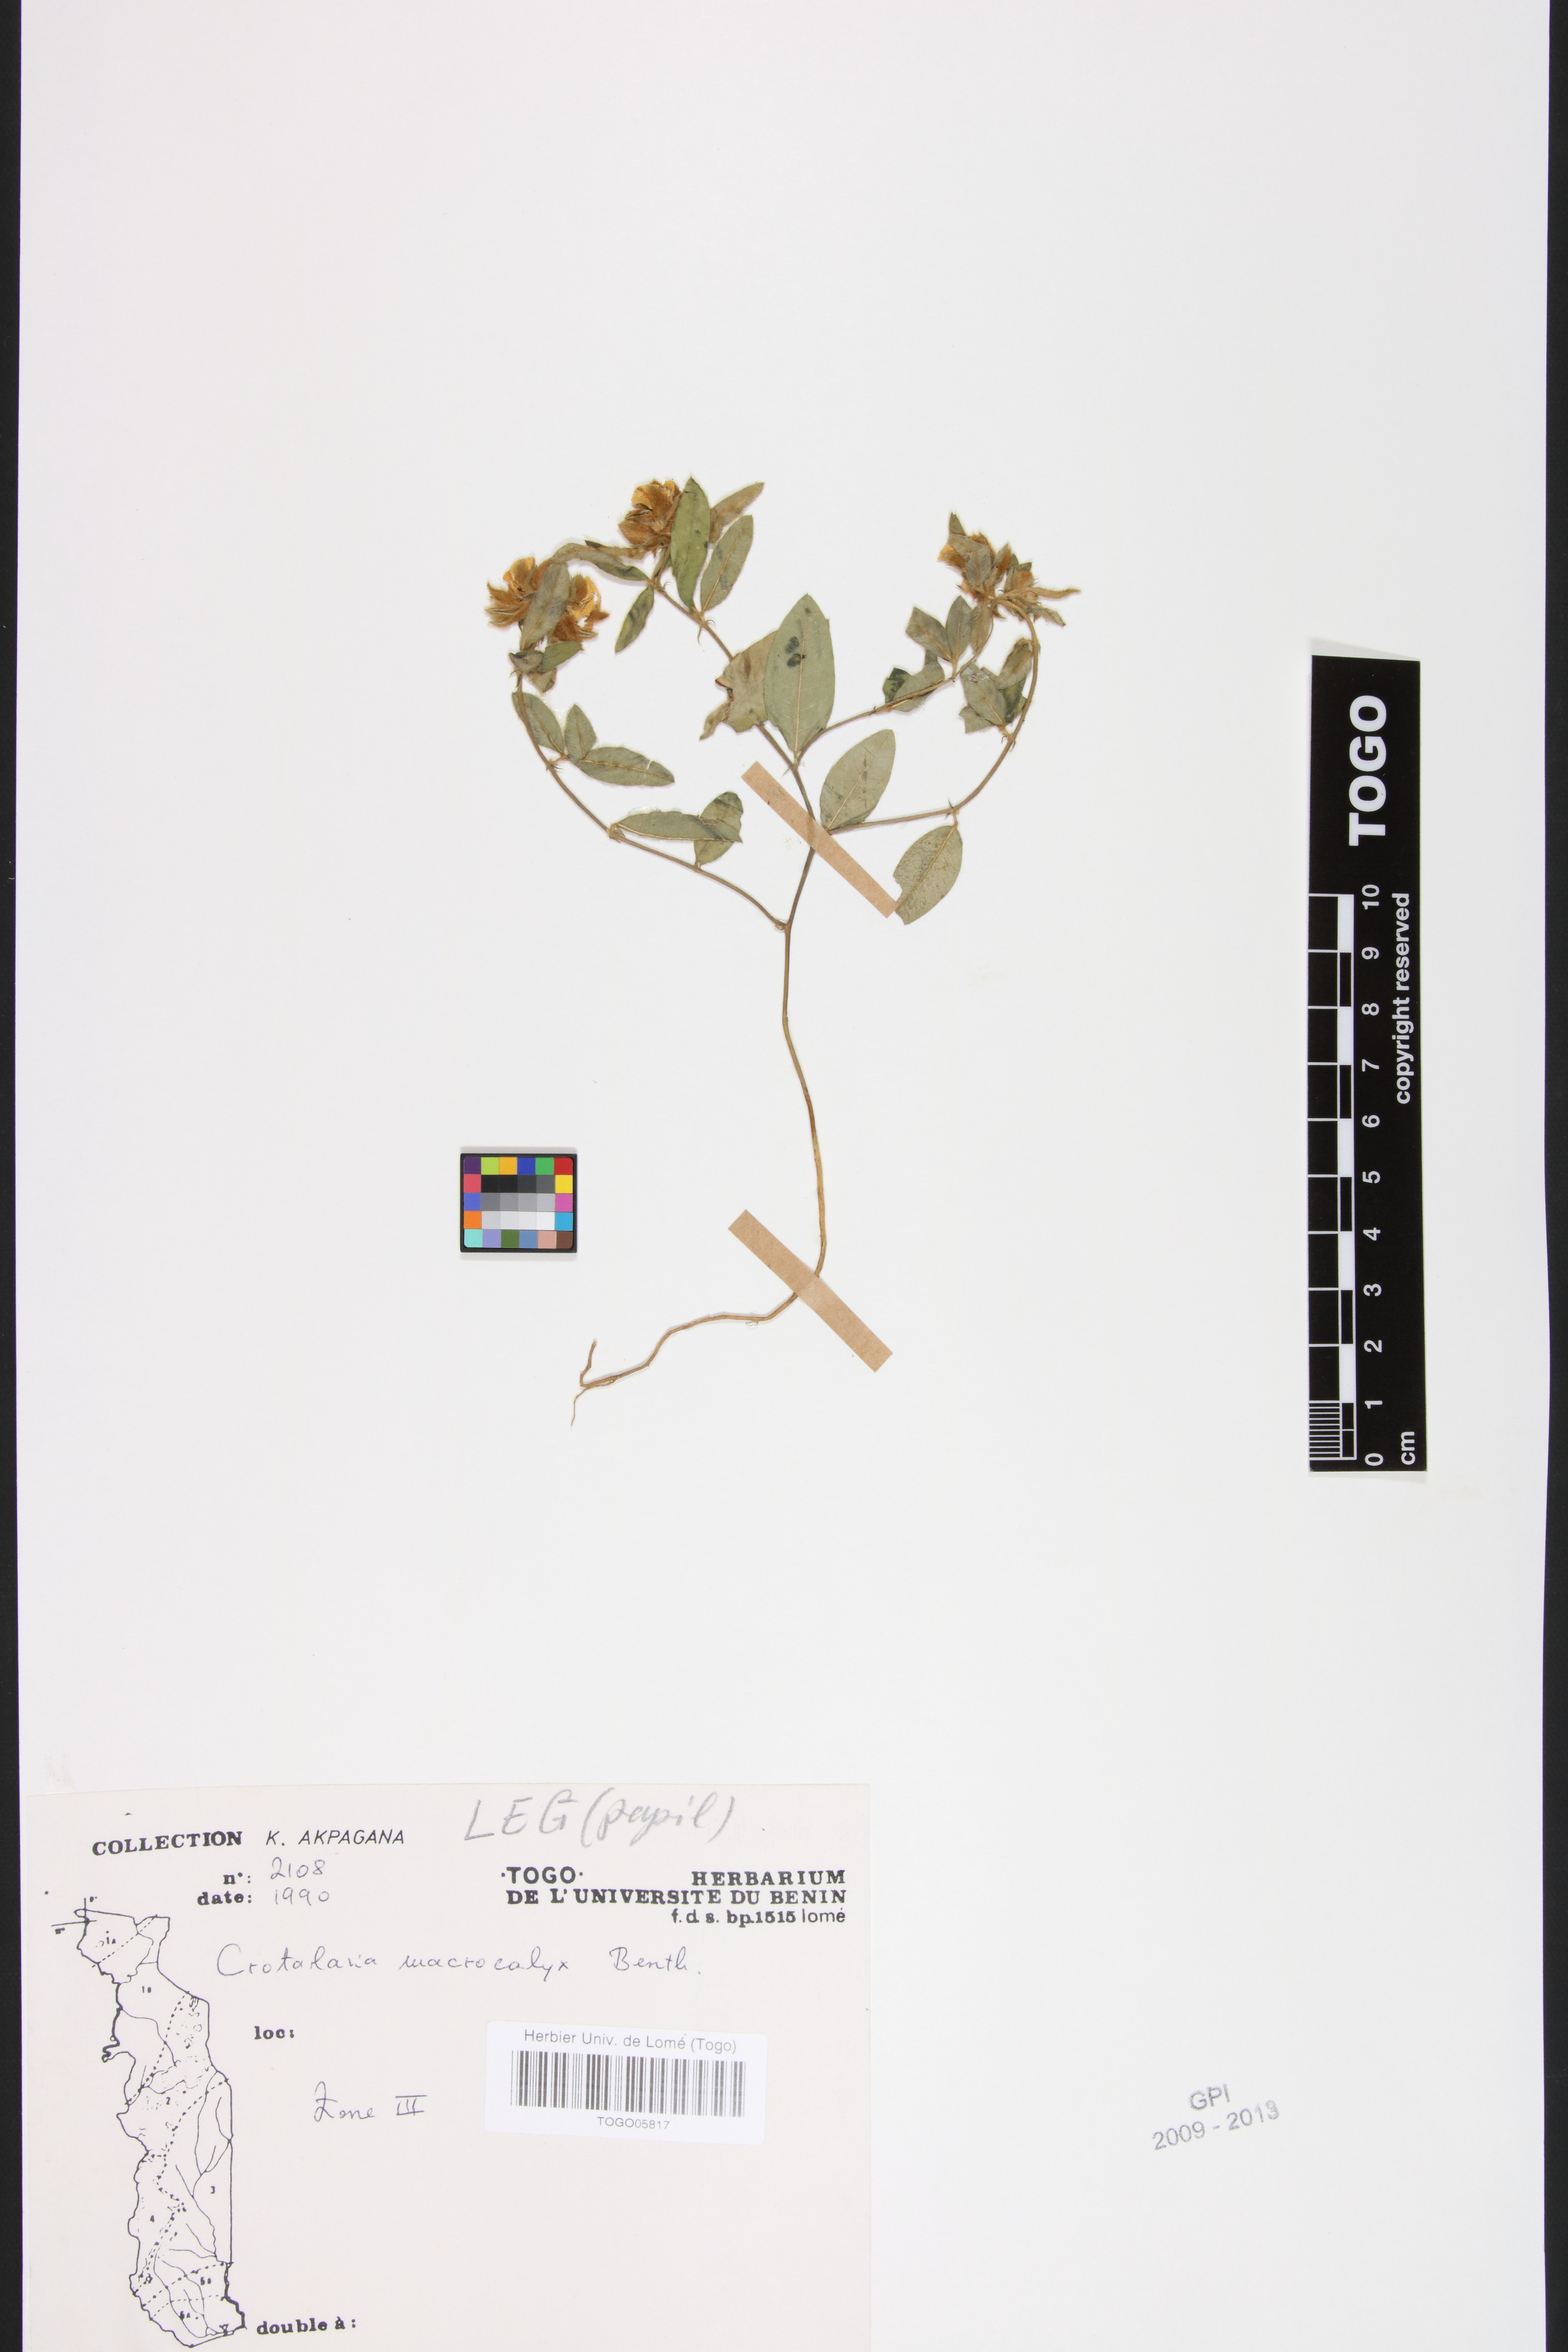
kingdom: Plantae
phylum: Tracheophyta
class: Magnoliopsida
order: Fabales
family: Fabaceae
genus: Crotalaria
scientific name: Crotalaria macrocalyx
